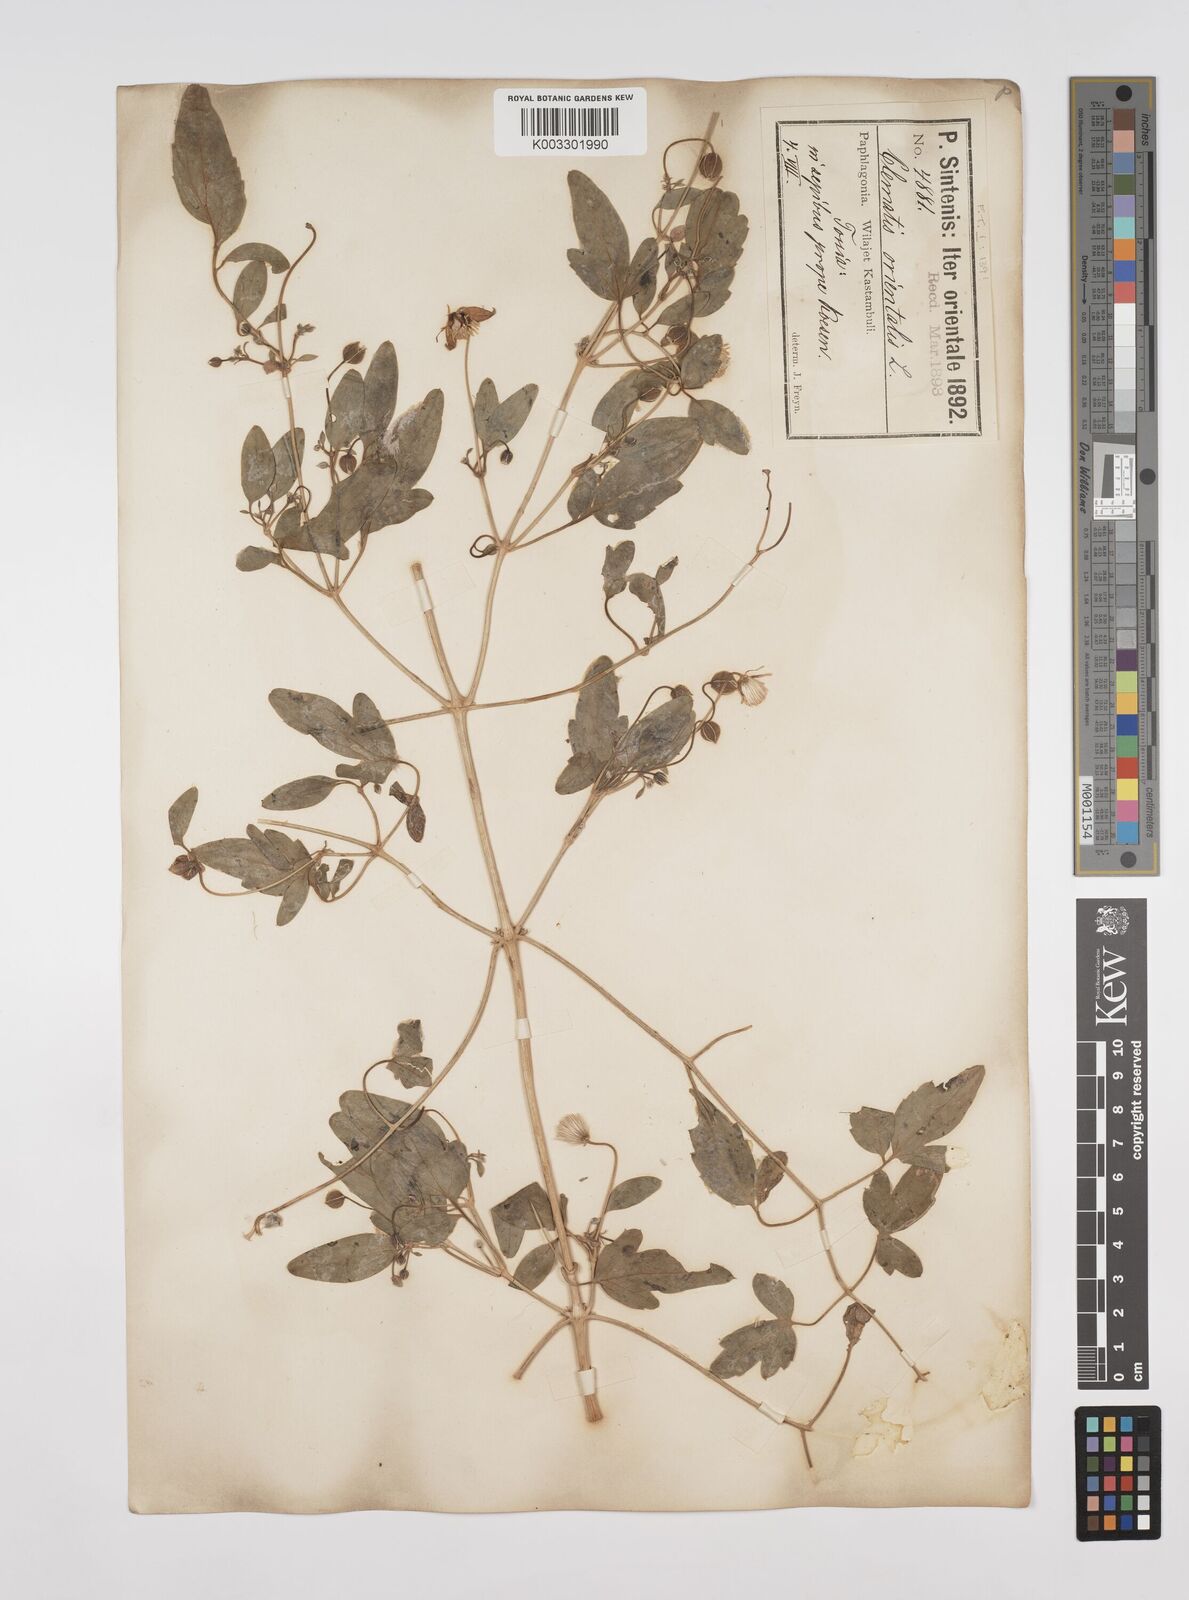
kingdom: Plantae
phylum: Tracheophyta
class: Magnoliopsida
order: Ranunculales
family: Ranunculaceae
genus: Clematis
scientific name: Clematis orientalis
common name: Oriental virgin's-bower
